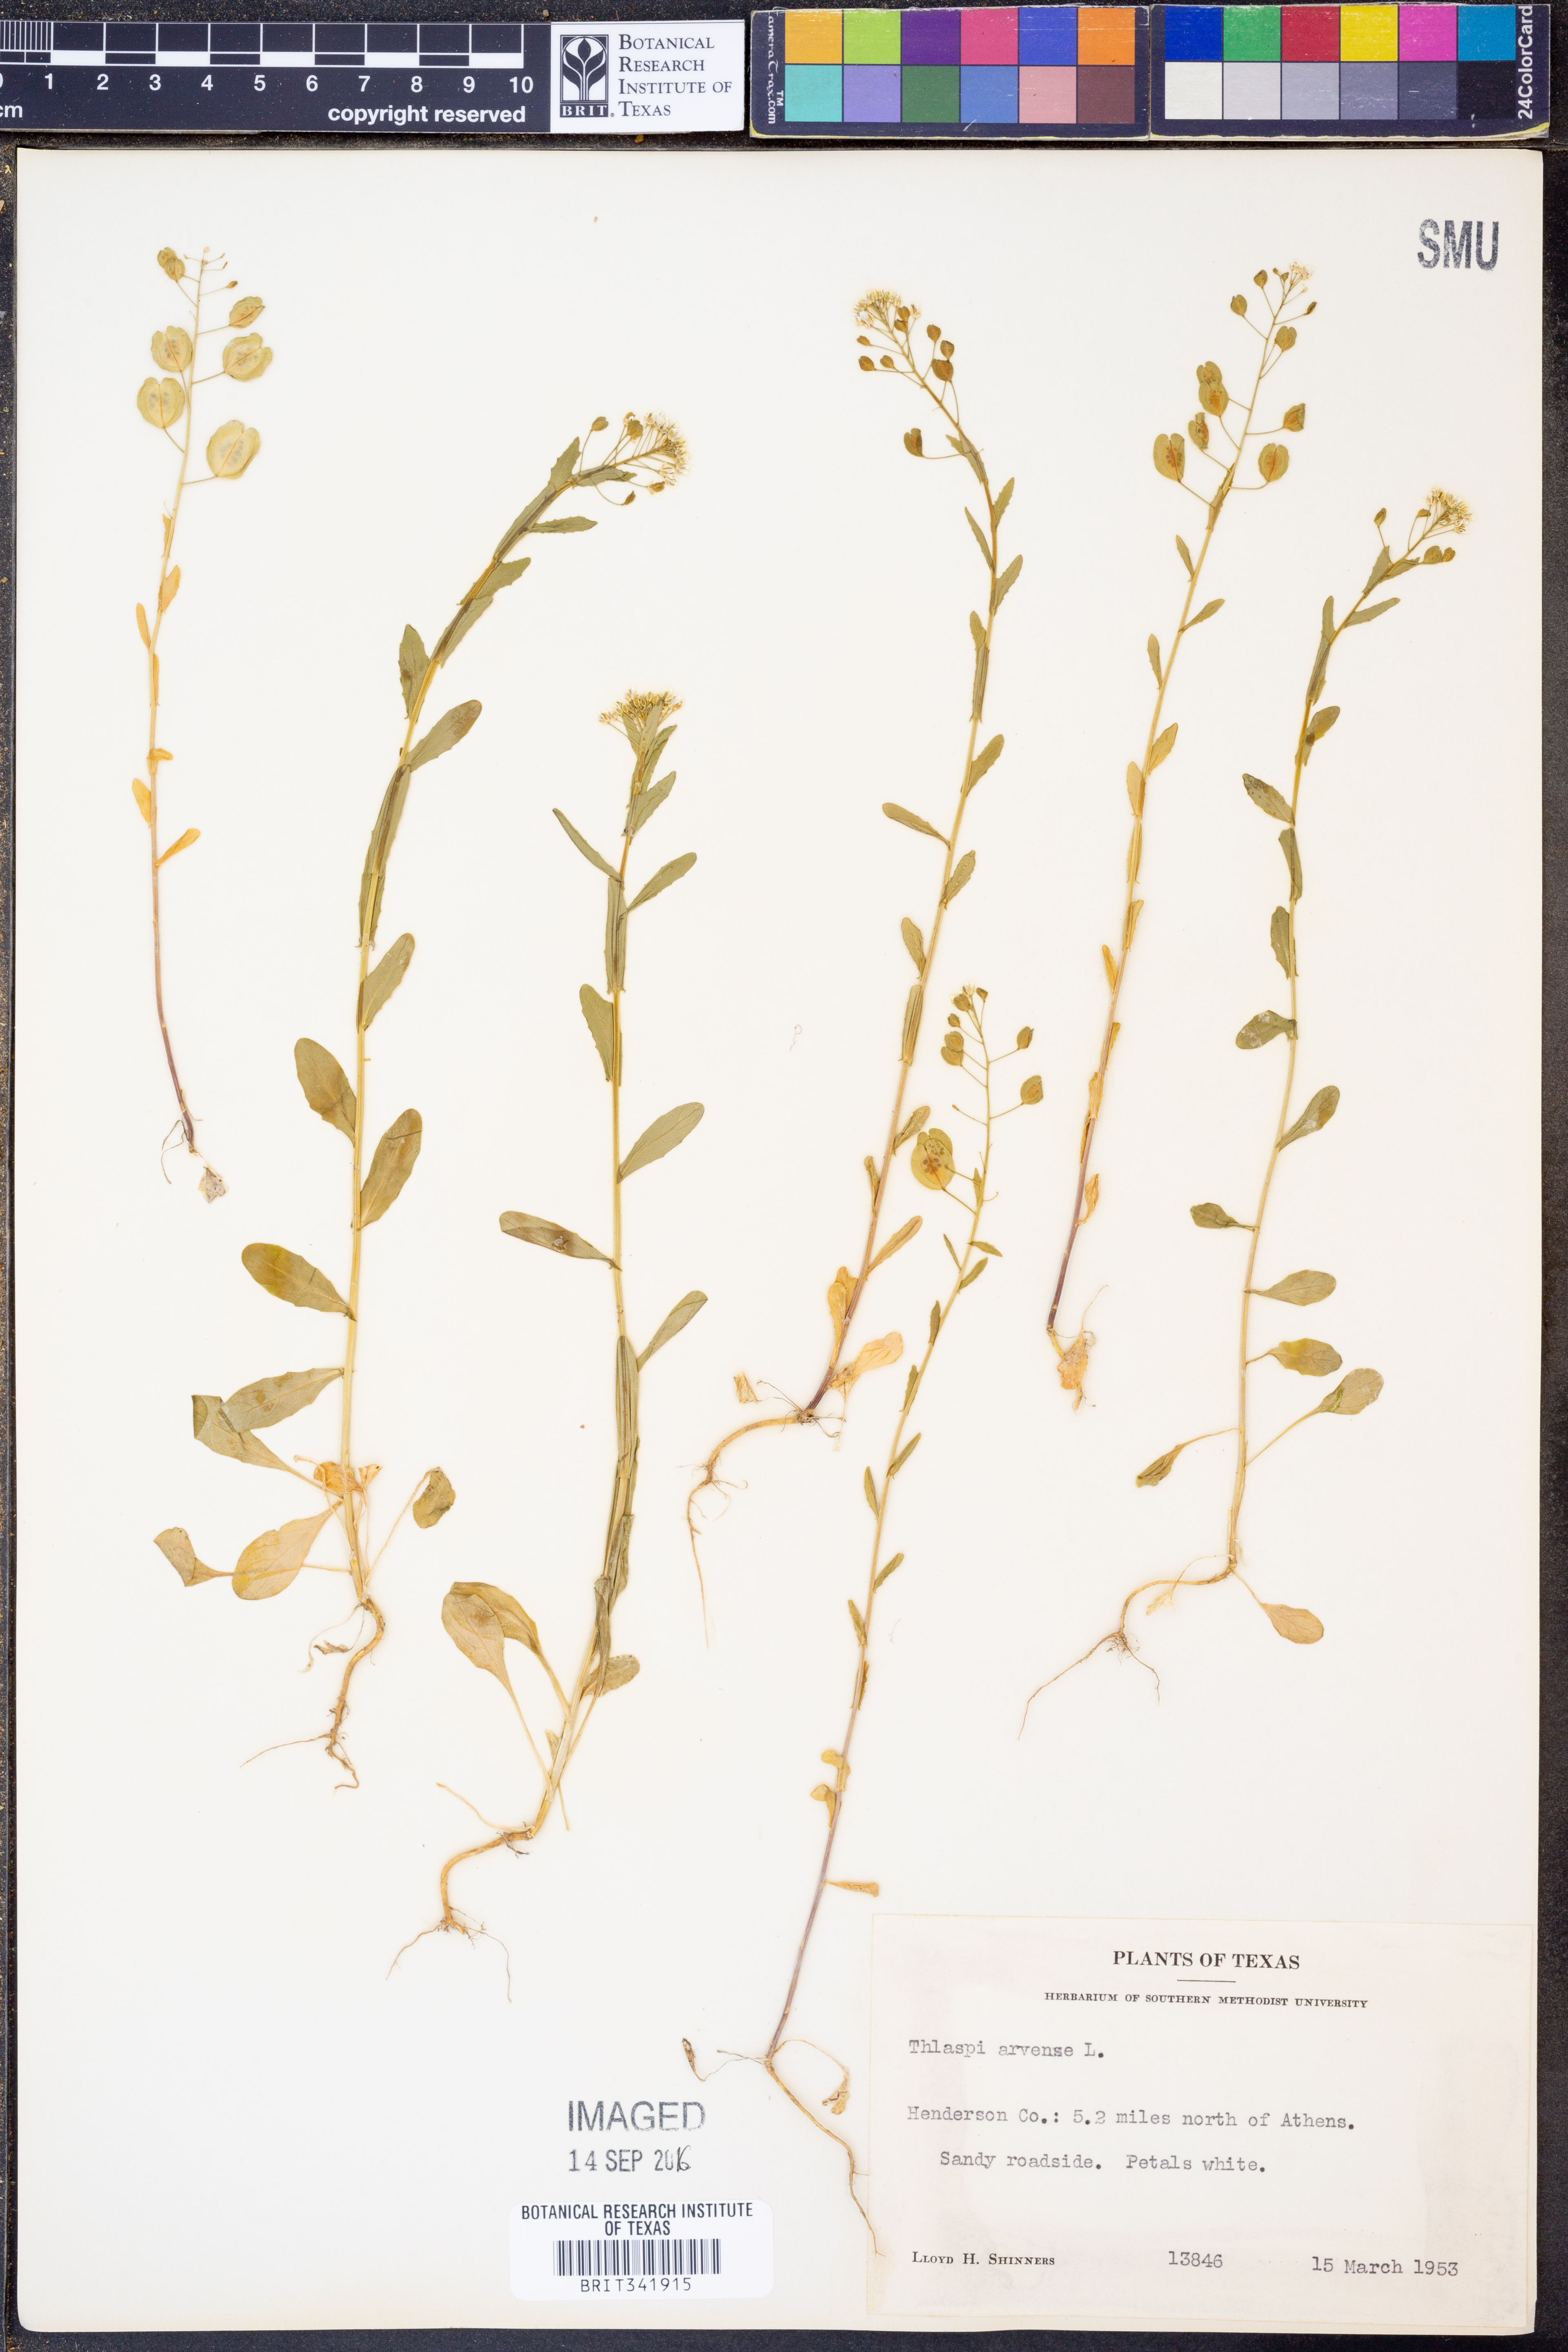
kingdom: Plantae
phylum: Tracheophyta
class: Magnoliopsida
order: Brassicales
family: Brassicaceae
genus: Thlaspi
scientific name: Thlaspi arvense
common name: Field pennycress
